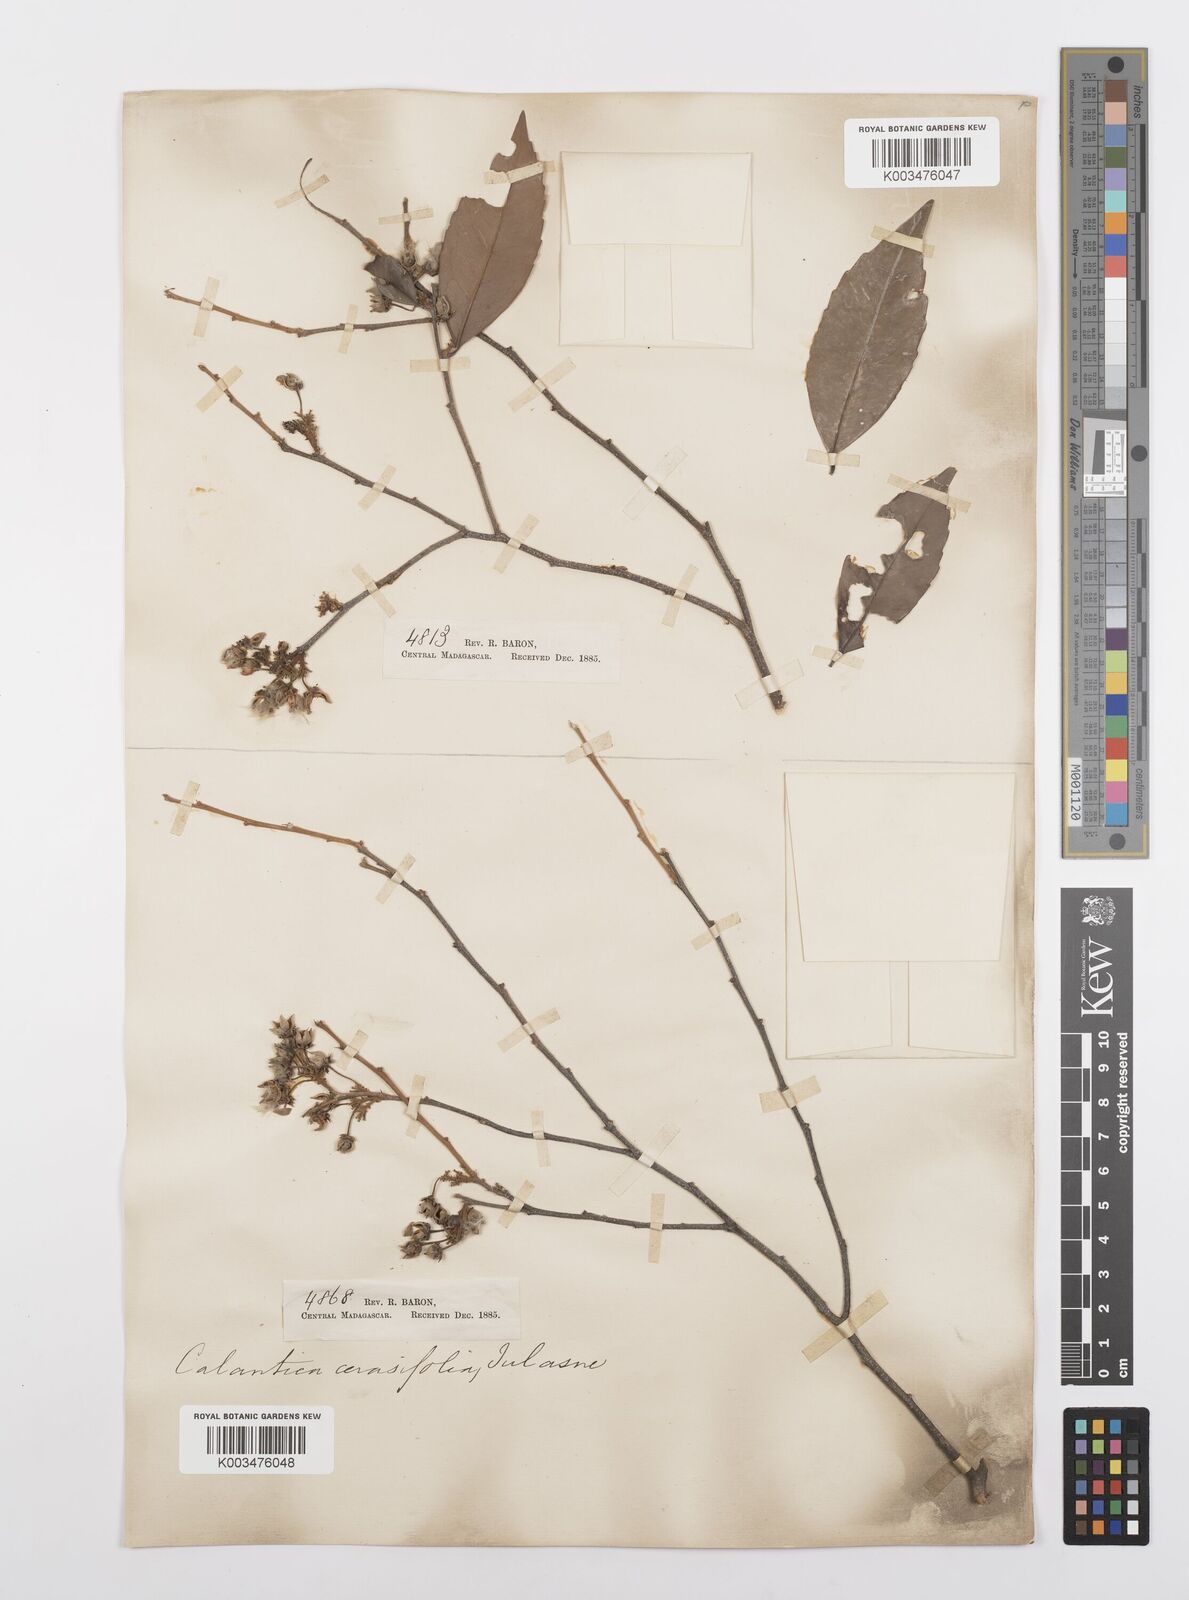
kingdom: Plantae
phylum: Tracheophyta
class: Magnoliopsida
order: Malpighiales
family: Salicaceae
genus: Calantica
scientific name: Calantica cerasifolia
